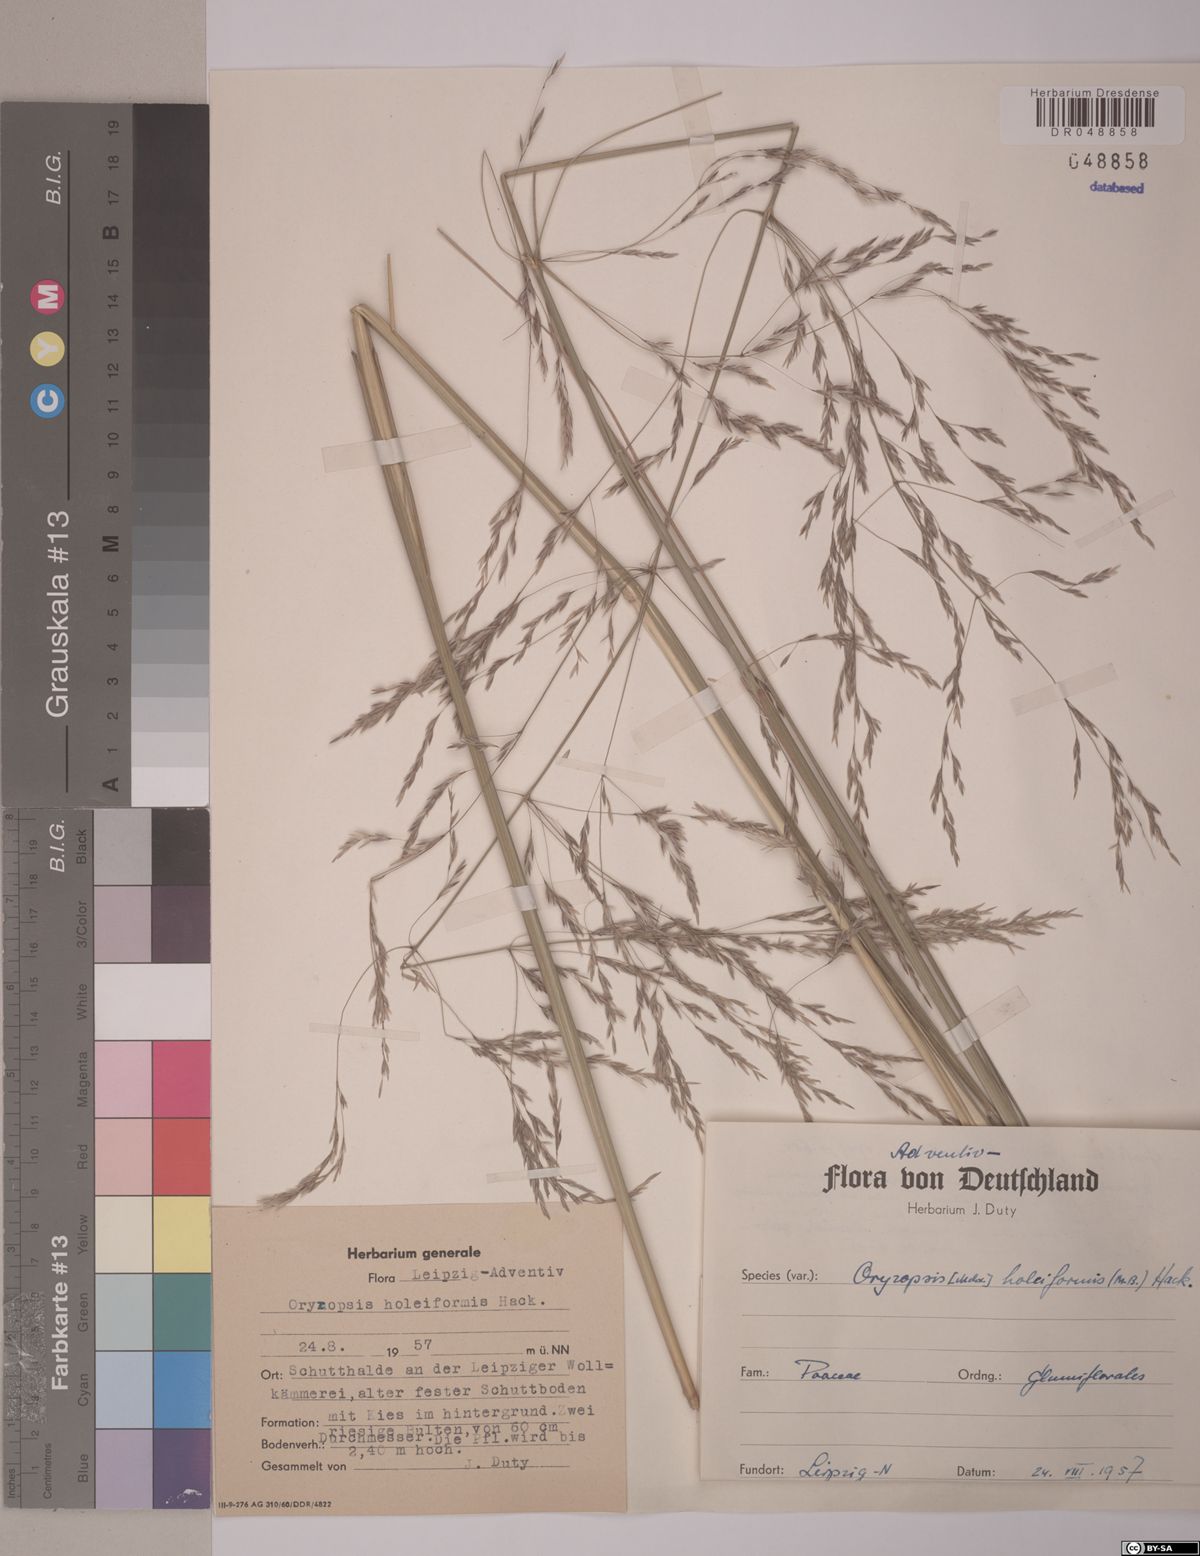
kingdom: Plantae
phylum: Tracheophyta
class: Liliopsida
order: Poales
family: Poaceae
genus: Piptatherum
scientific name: Piptatherum holciforme
